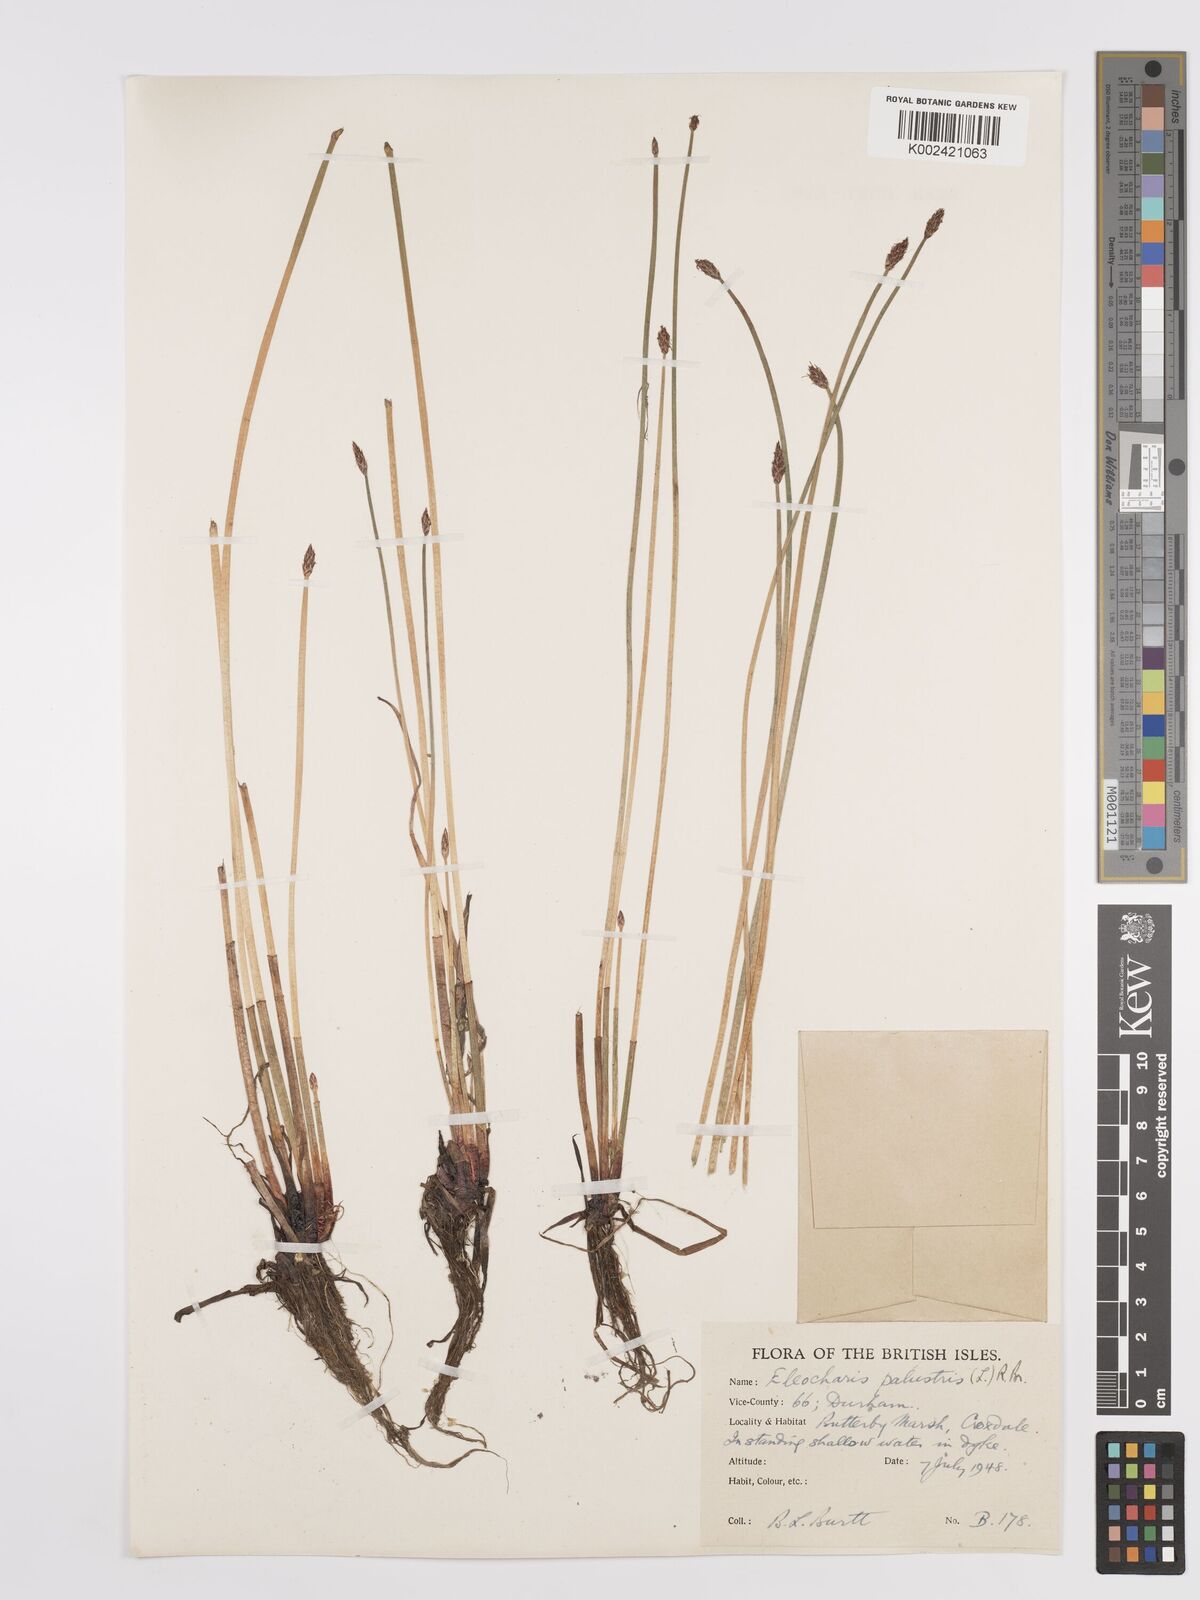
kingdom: Plantae
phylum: Tracheophyta
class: Liliopsida
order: Poales
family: Cyperaceae
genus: Eleocharis
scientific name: Eleocharis palustris
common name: Common spike-rush
